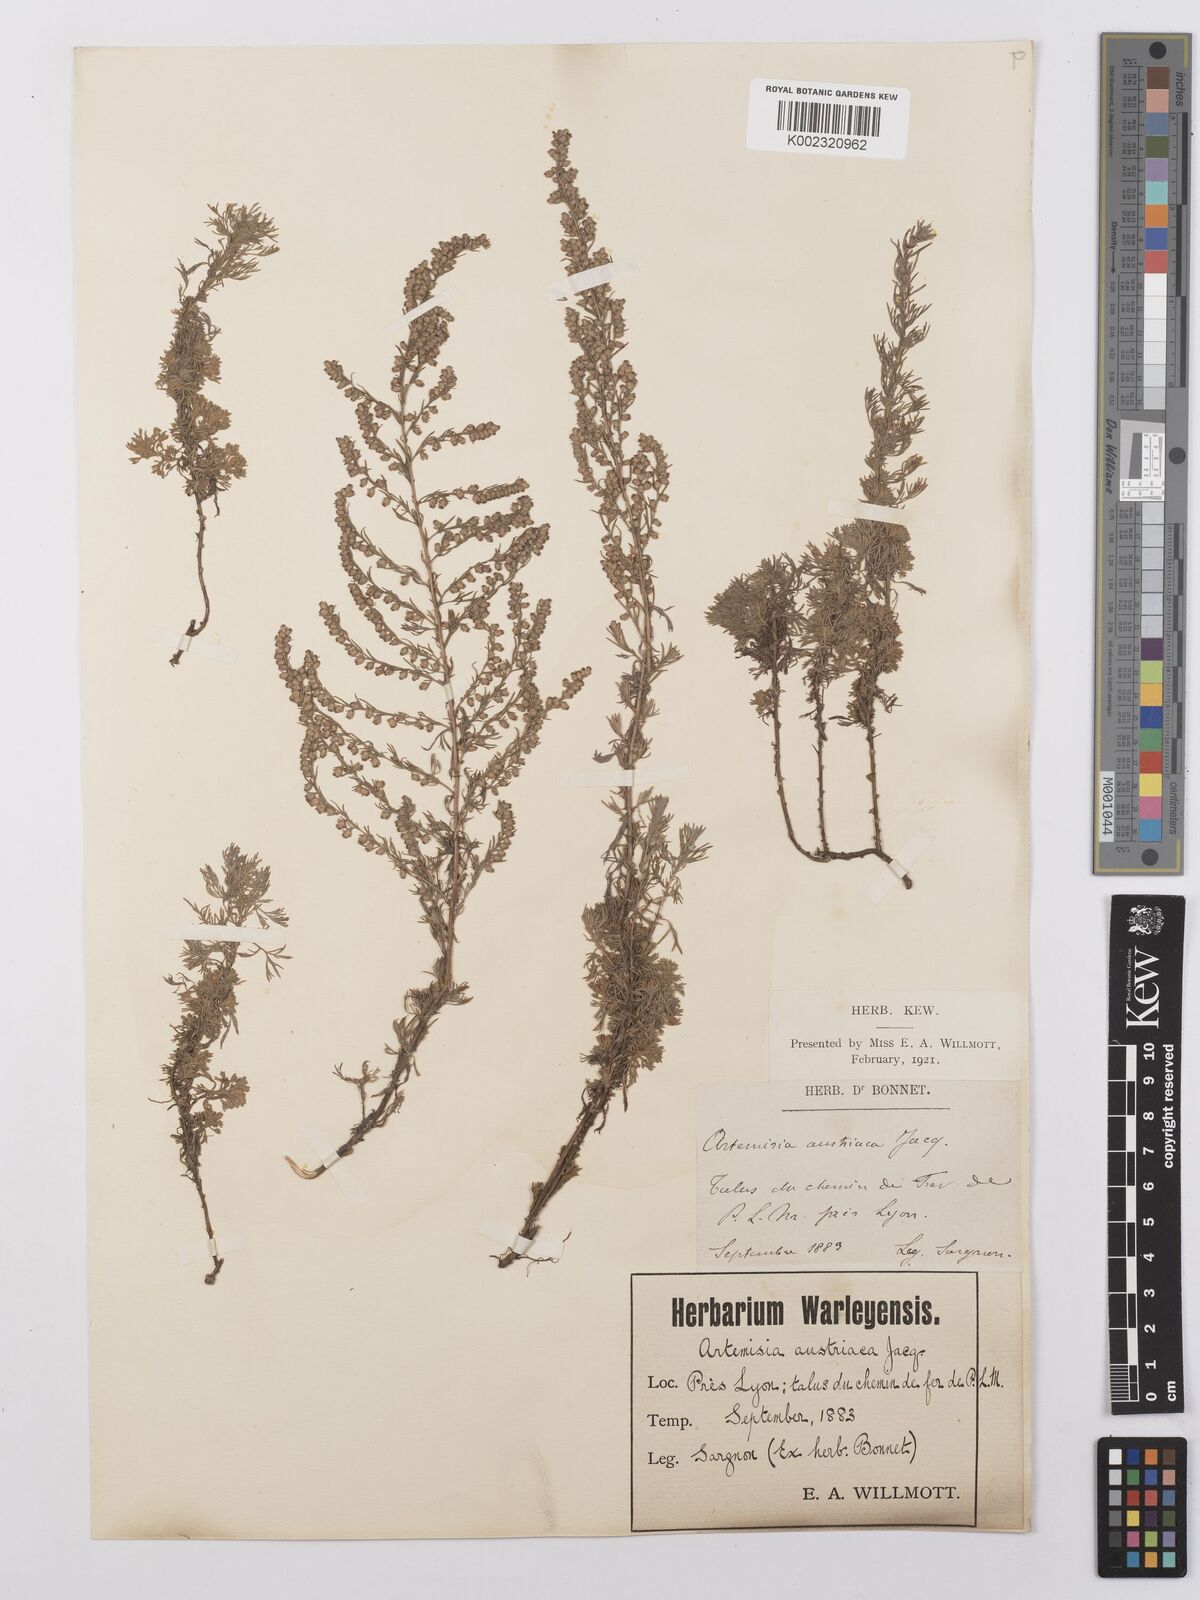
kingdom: Plantae
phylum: Tracheophyta
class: Magnoliopsida
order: Asterales
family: Asteraceae
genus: Artemisia
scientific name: Artemisia
